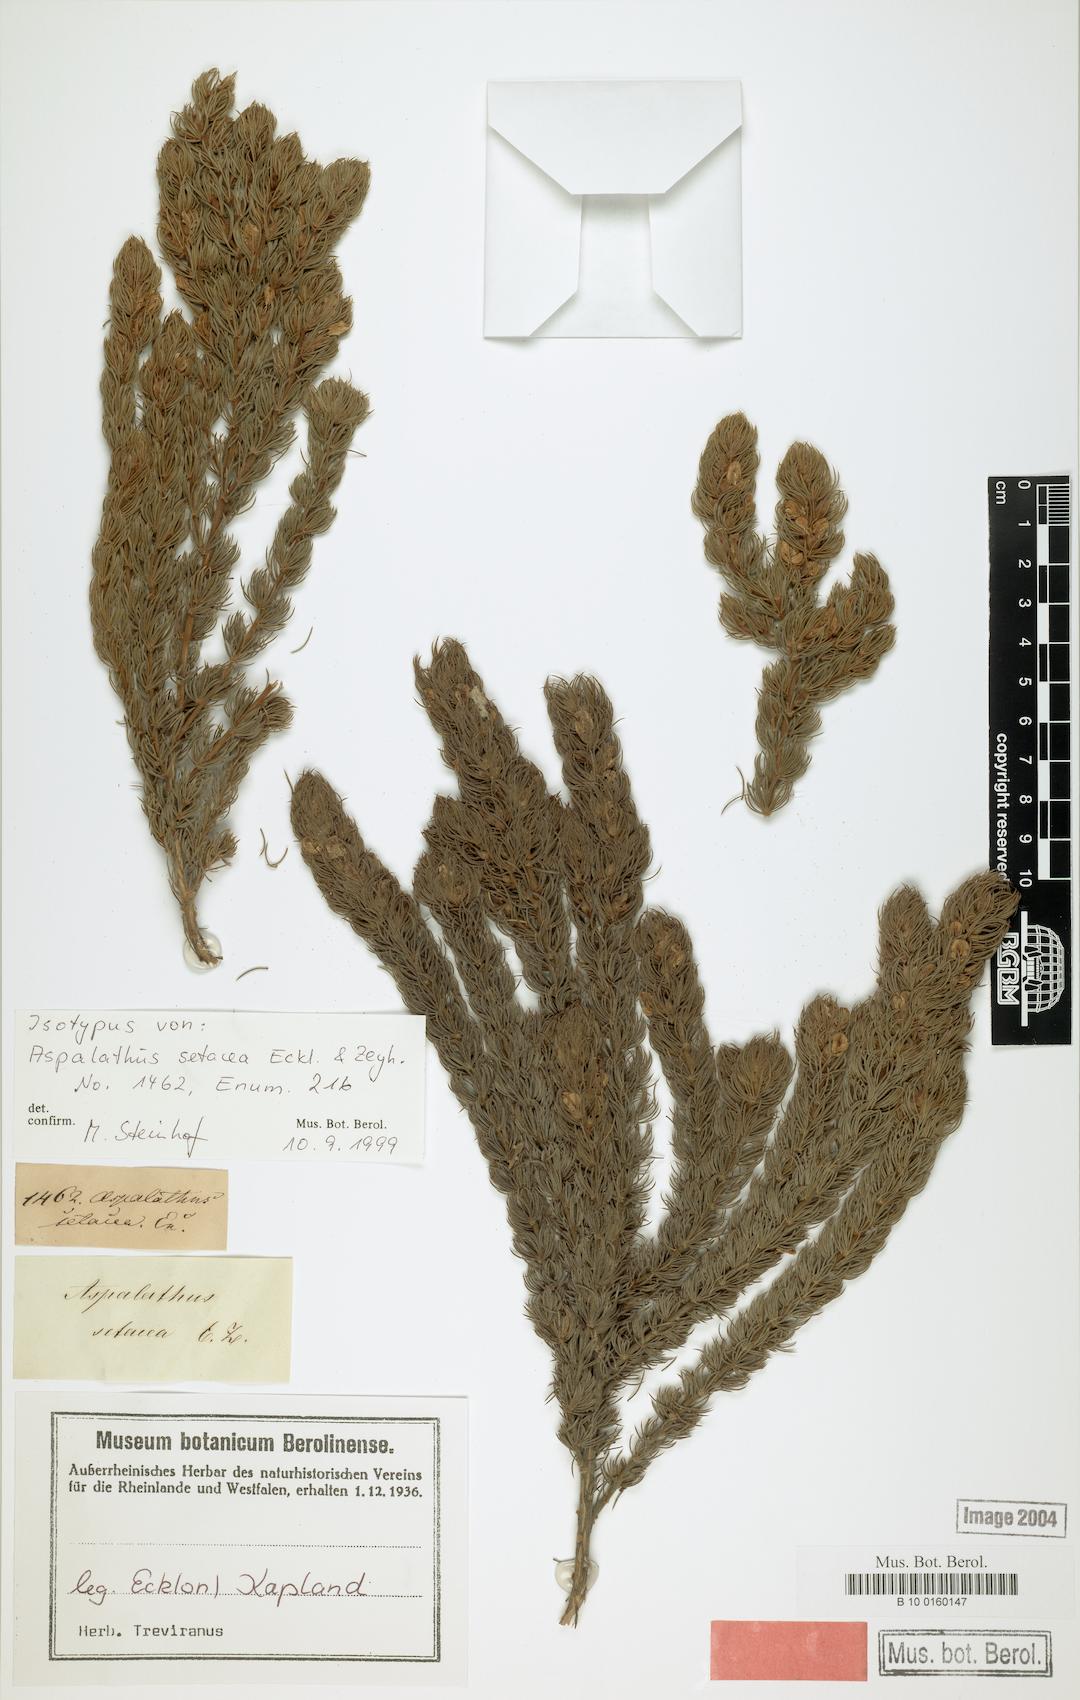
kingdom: Plantae
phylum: Tracheophyta
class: Magnoliopsida
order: Fabales
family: Fabaceae
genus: Aspalathus
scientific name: Aspalathus setacea
